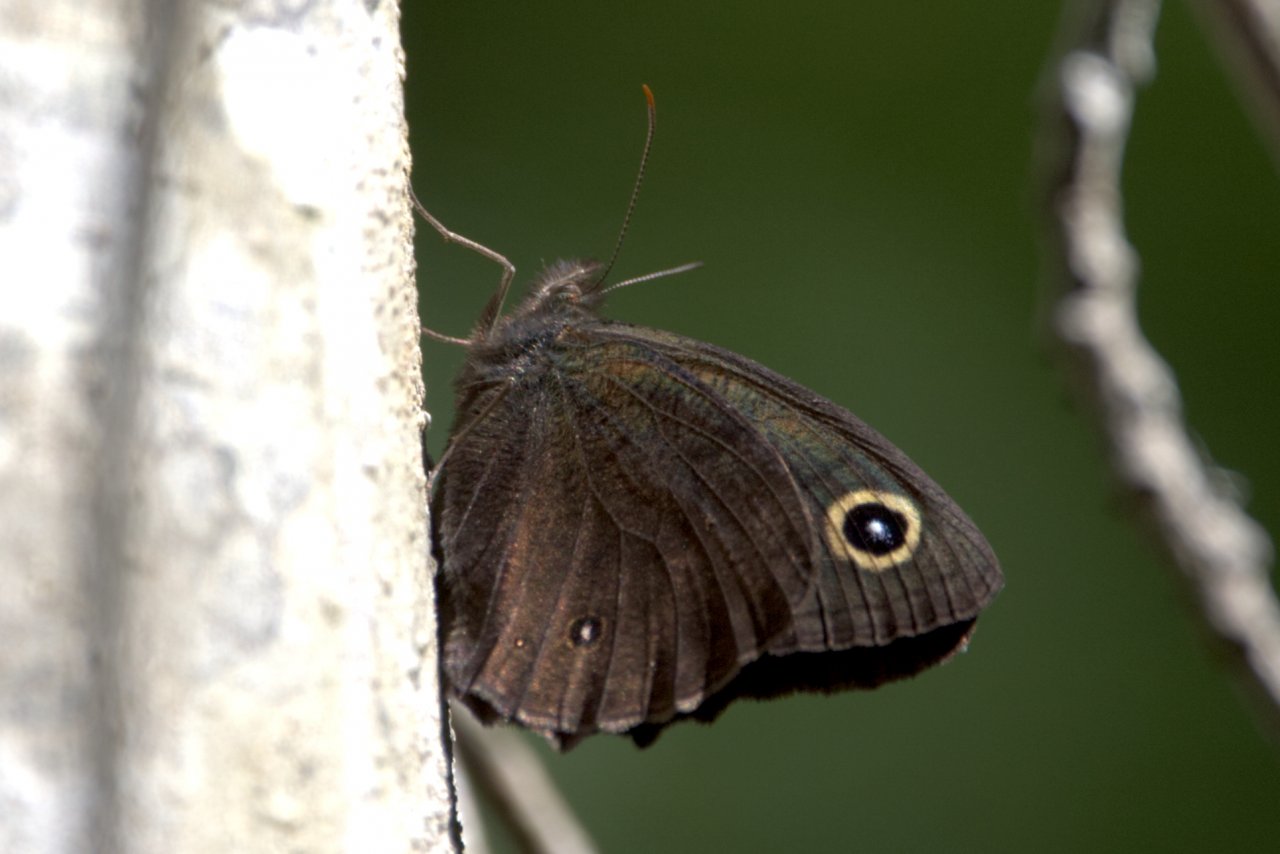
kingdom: Animalia
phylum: Arthropoda
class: Insecta
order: Lepidoptera
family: Nymphalidae
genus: Cercyonis
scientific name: Cercyonis pegala
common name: Common Wood-Nymph
